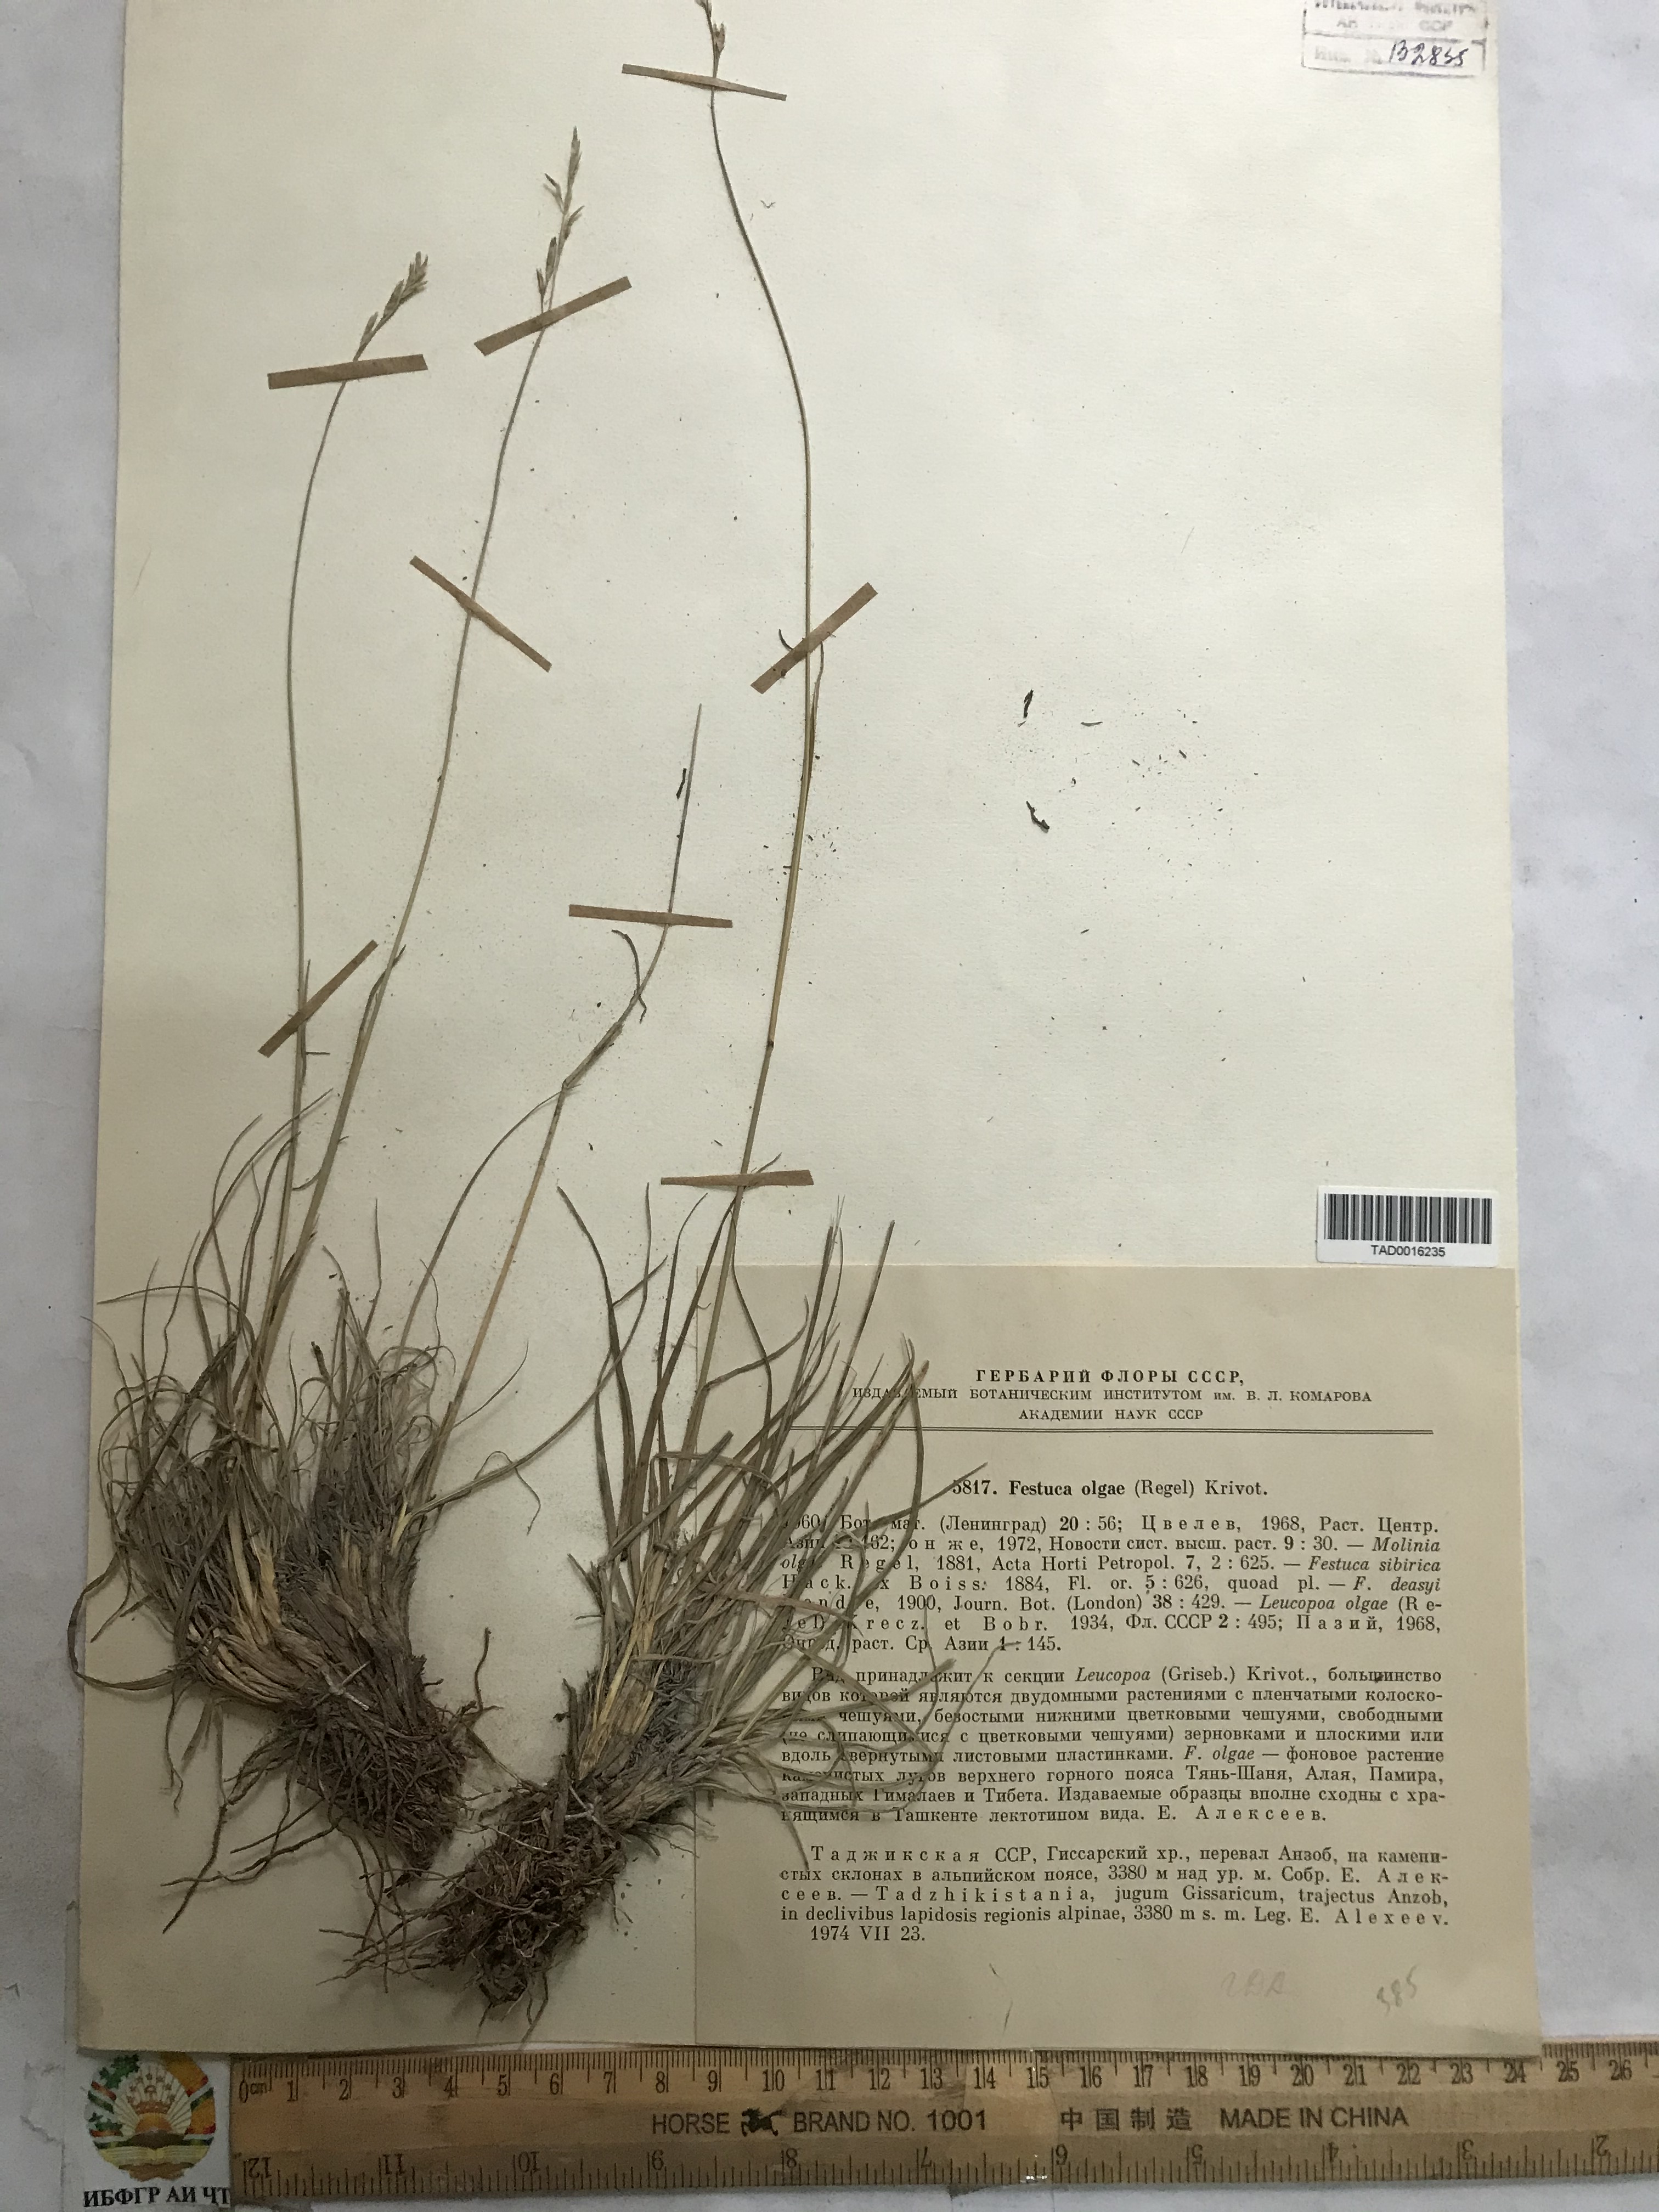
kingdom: Plantae
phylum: Tracheophyta
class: Liliopsida
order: Poales
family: Poaceae
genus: Festuca
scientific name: Festuca
